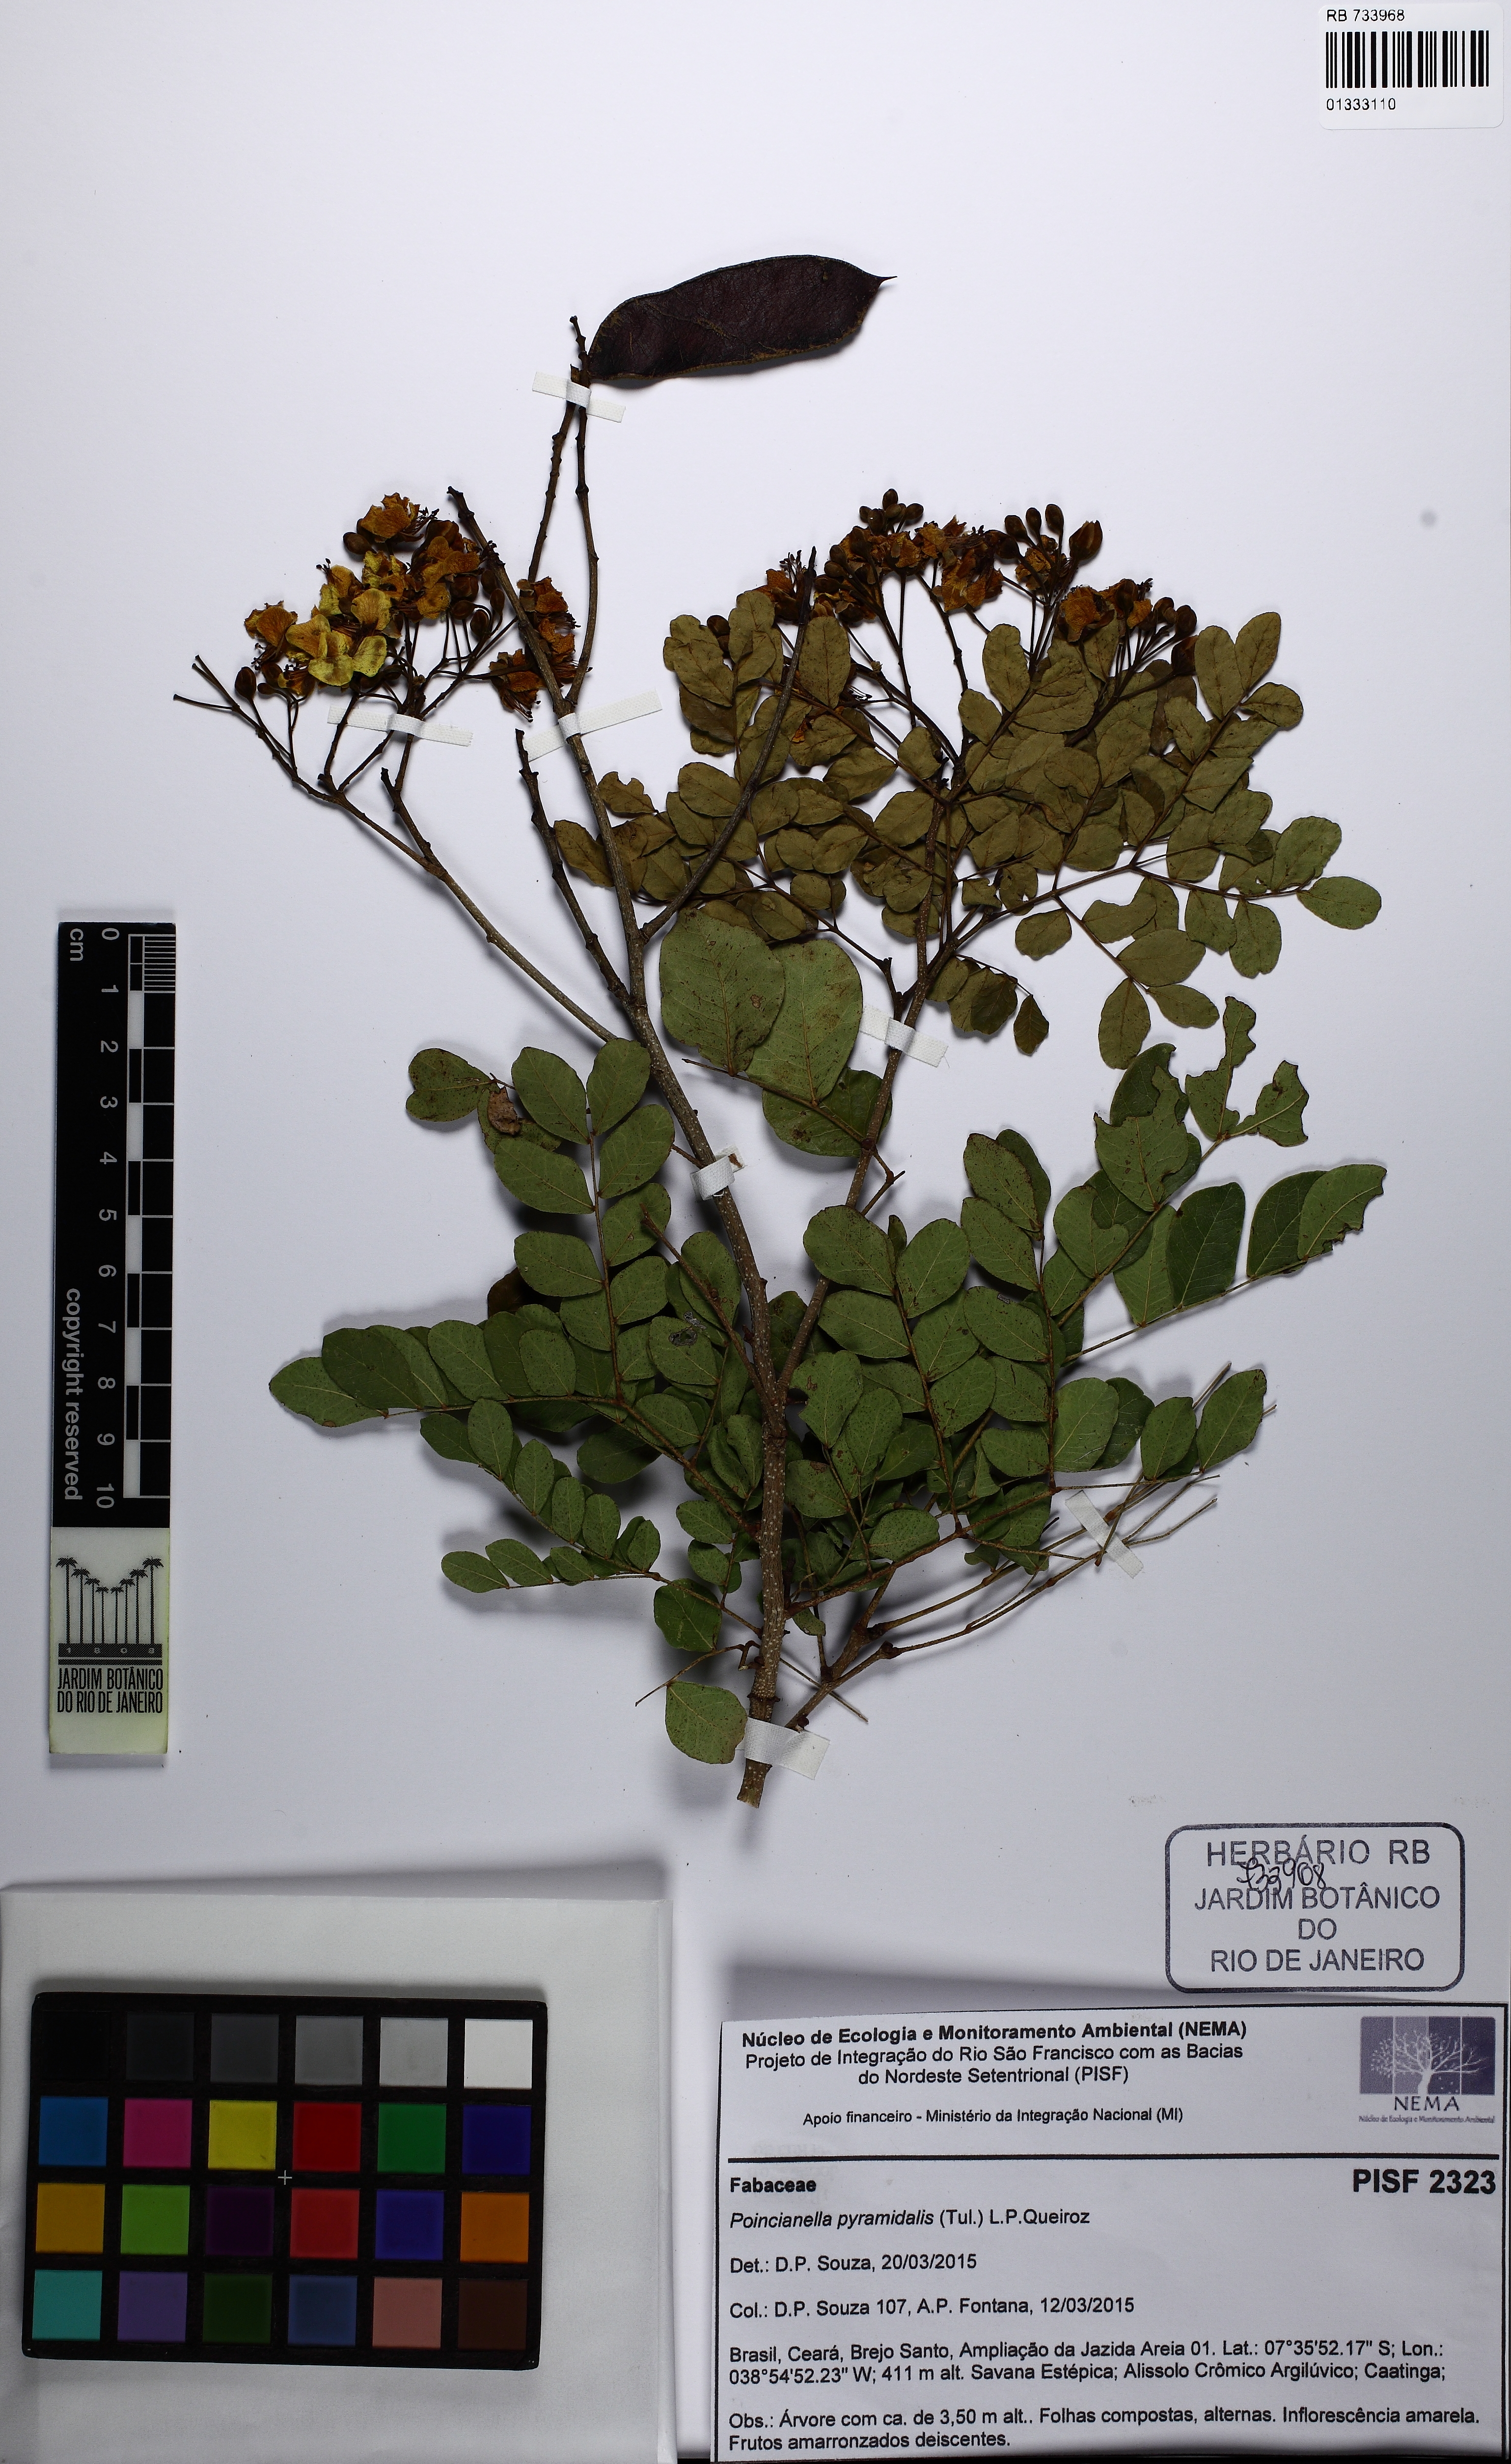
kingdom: Plantae
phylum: Tracheophyta
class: Magnoliopsida
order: Fabales
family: Fabaceae
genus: Cenostigma
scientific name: Cenostigma pyramidale
